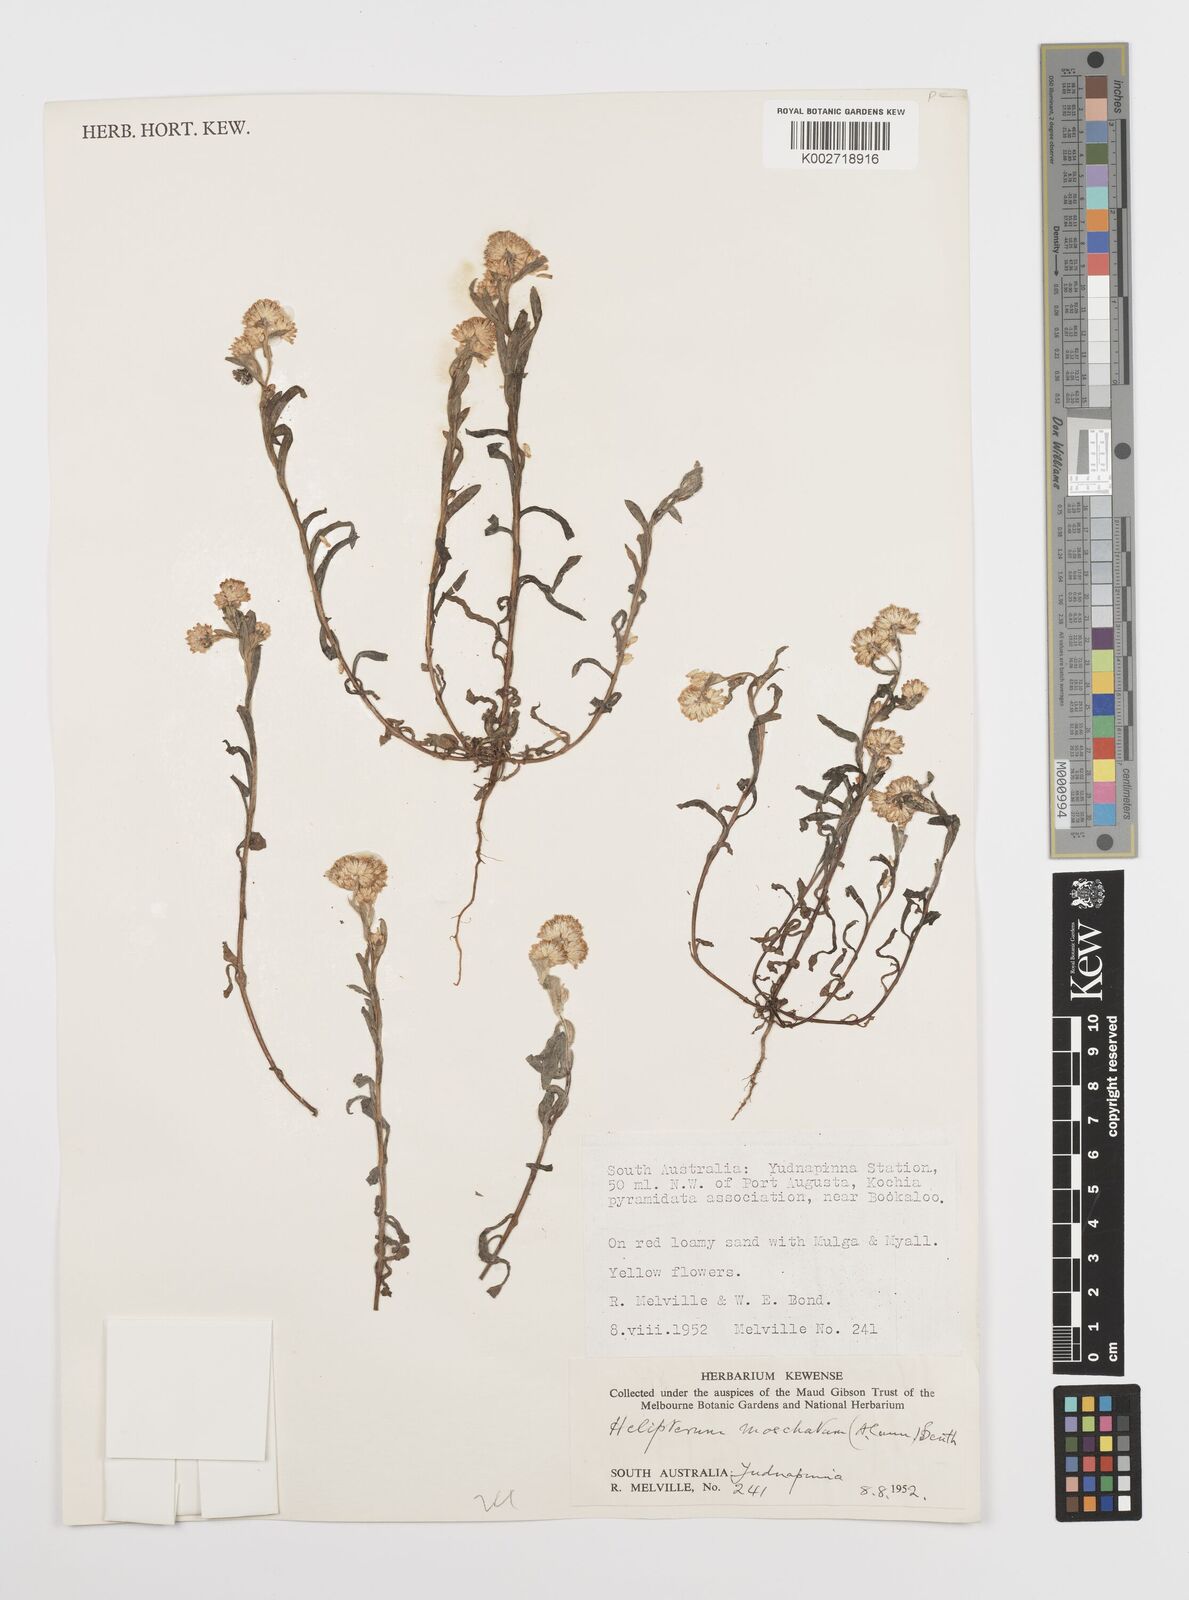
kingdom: Plantae
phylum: Tracheophyta
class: Magnoliopsida
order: Asterales
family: Asteraceae
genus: Rhodanthe
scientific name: Rhodanthe moschata
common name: Musk sunray
